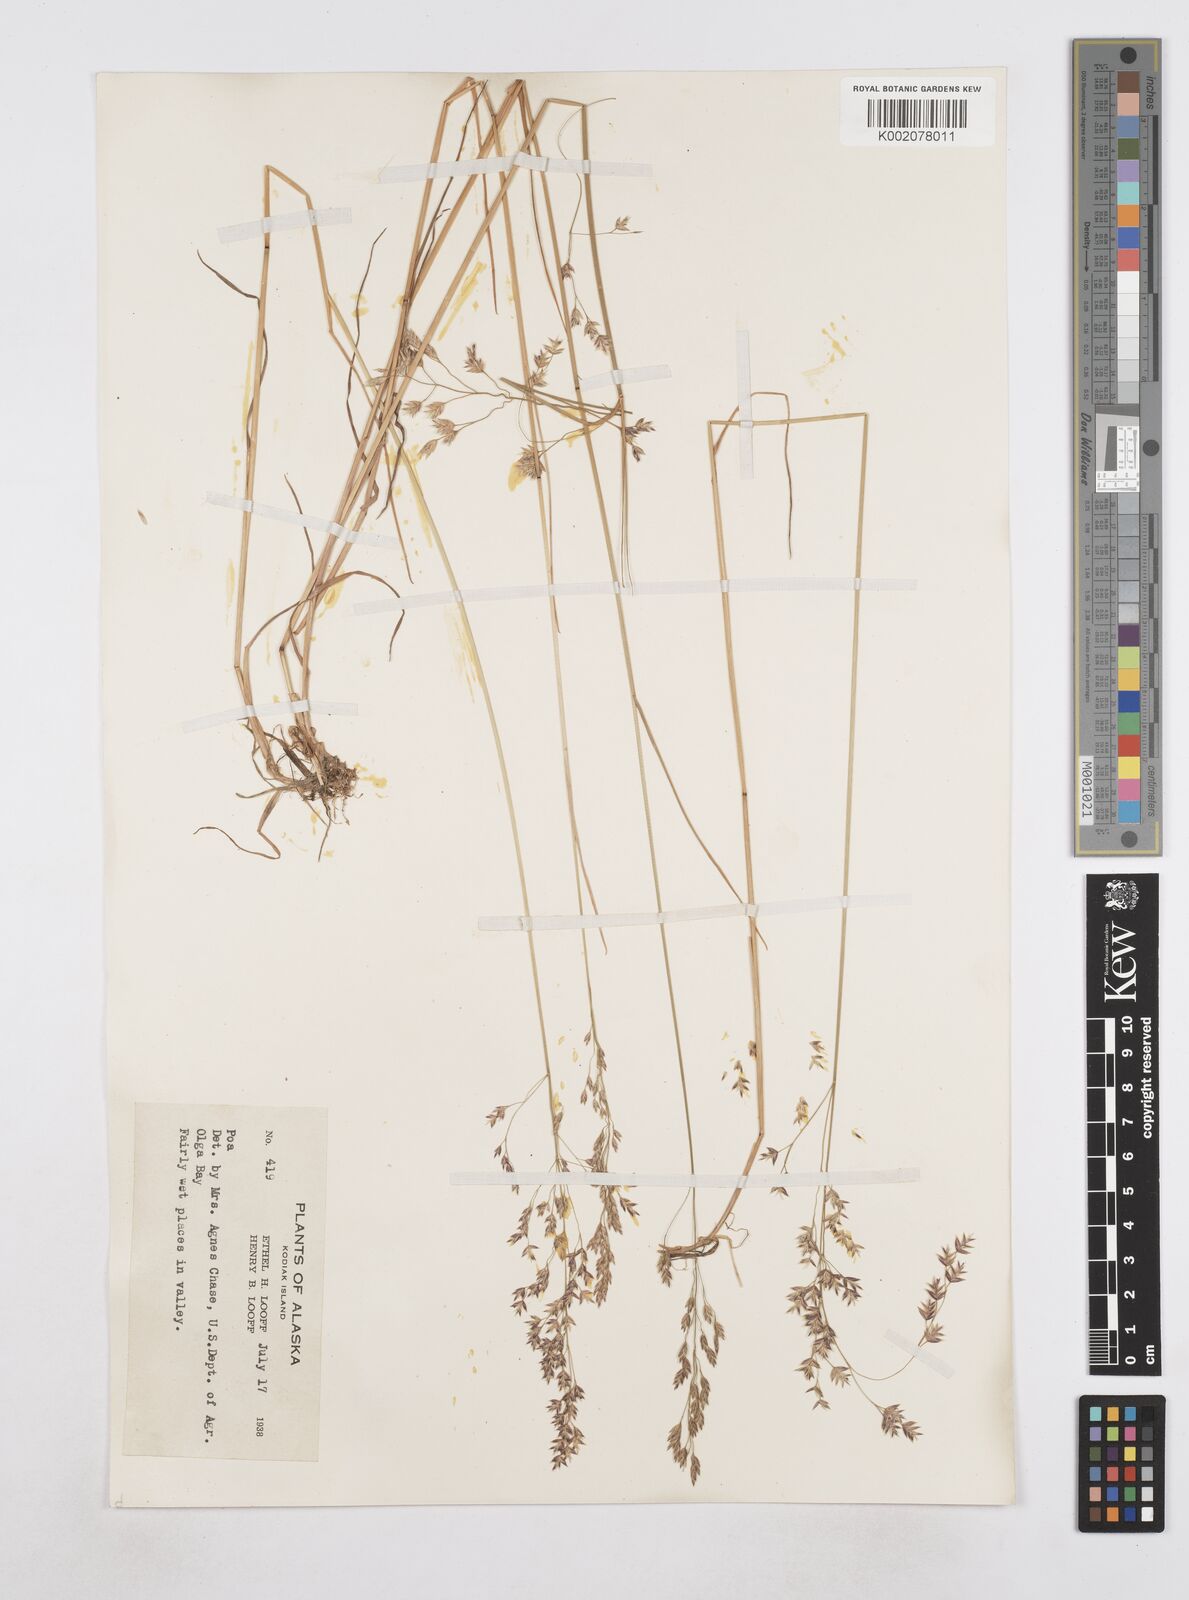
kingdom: Plantae
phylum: Tracheophyta
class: Liliopsida
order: Poales
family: Poaceae
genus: Poa
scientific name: Poa
